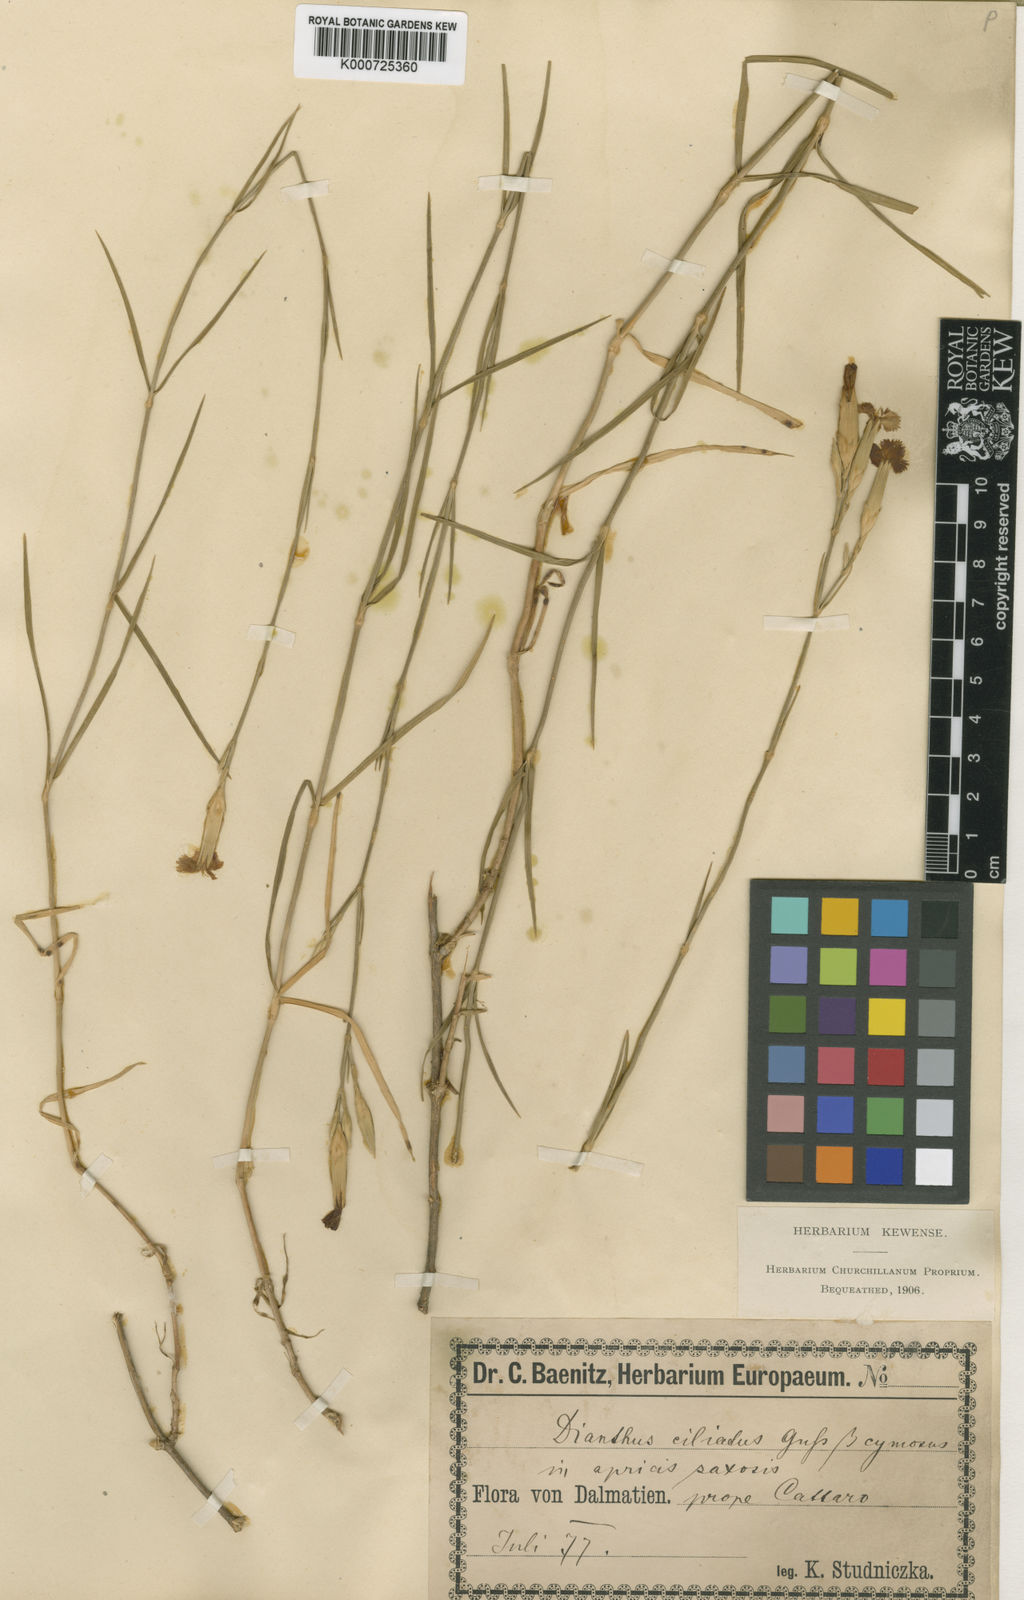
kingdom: Plantae
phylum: Tracheophyta
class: Magnoliopsida
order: Caryophyllales
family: Caryophyllaceae
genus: Dianthus
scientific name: Dianthus
